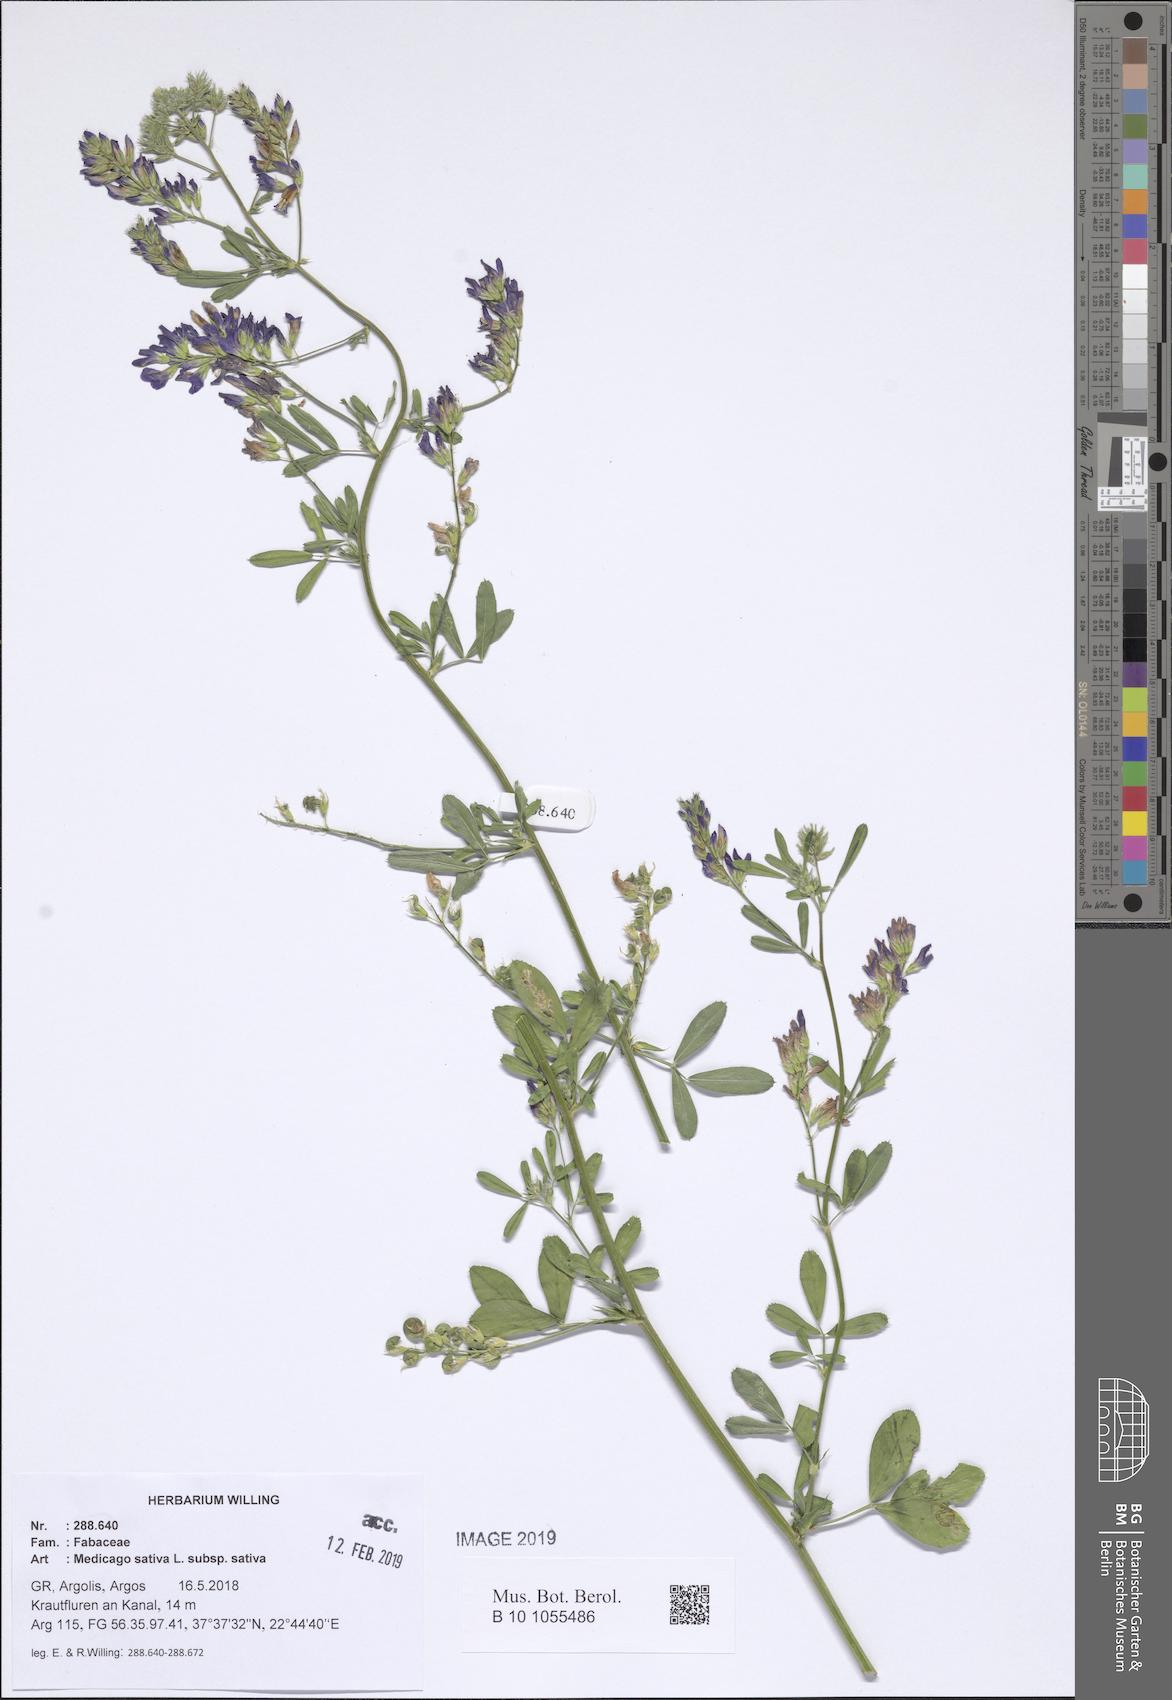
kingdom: Plantae
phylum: Tracheophyta
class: Magnoliopsida
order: Fabales
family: Fabaceae
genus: Medicago
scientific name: Medicago sativa
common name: Alfalfa
